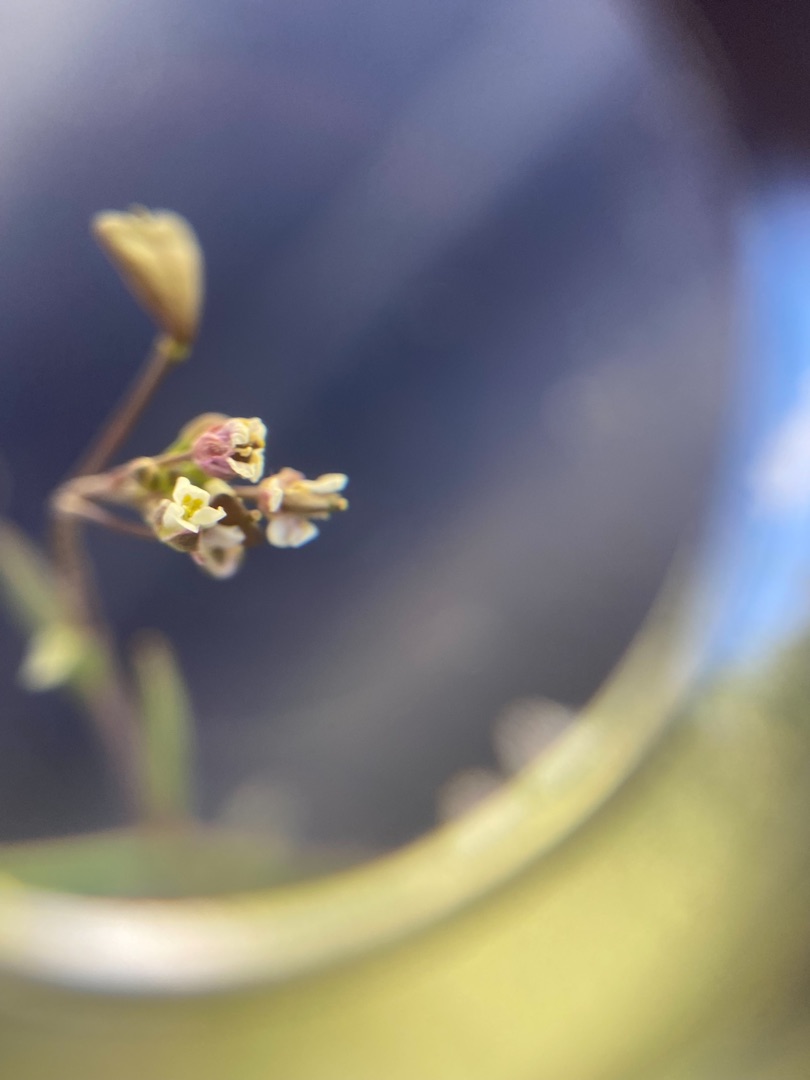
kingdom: Plantae
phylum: Tracheophyta
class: Magnoliopsida
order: Brassicales
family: Brassicaceae
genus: Capsella
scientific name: Capsella bursa-pastoris
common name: Hyrdetaske
